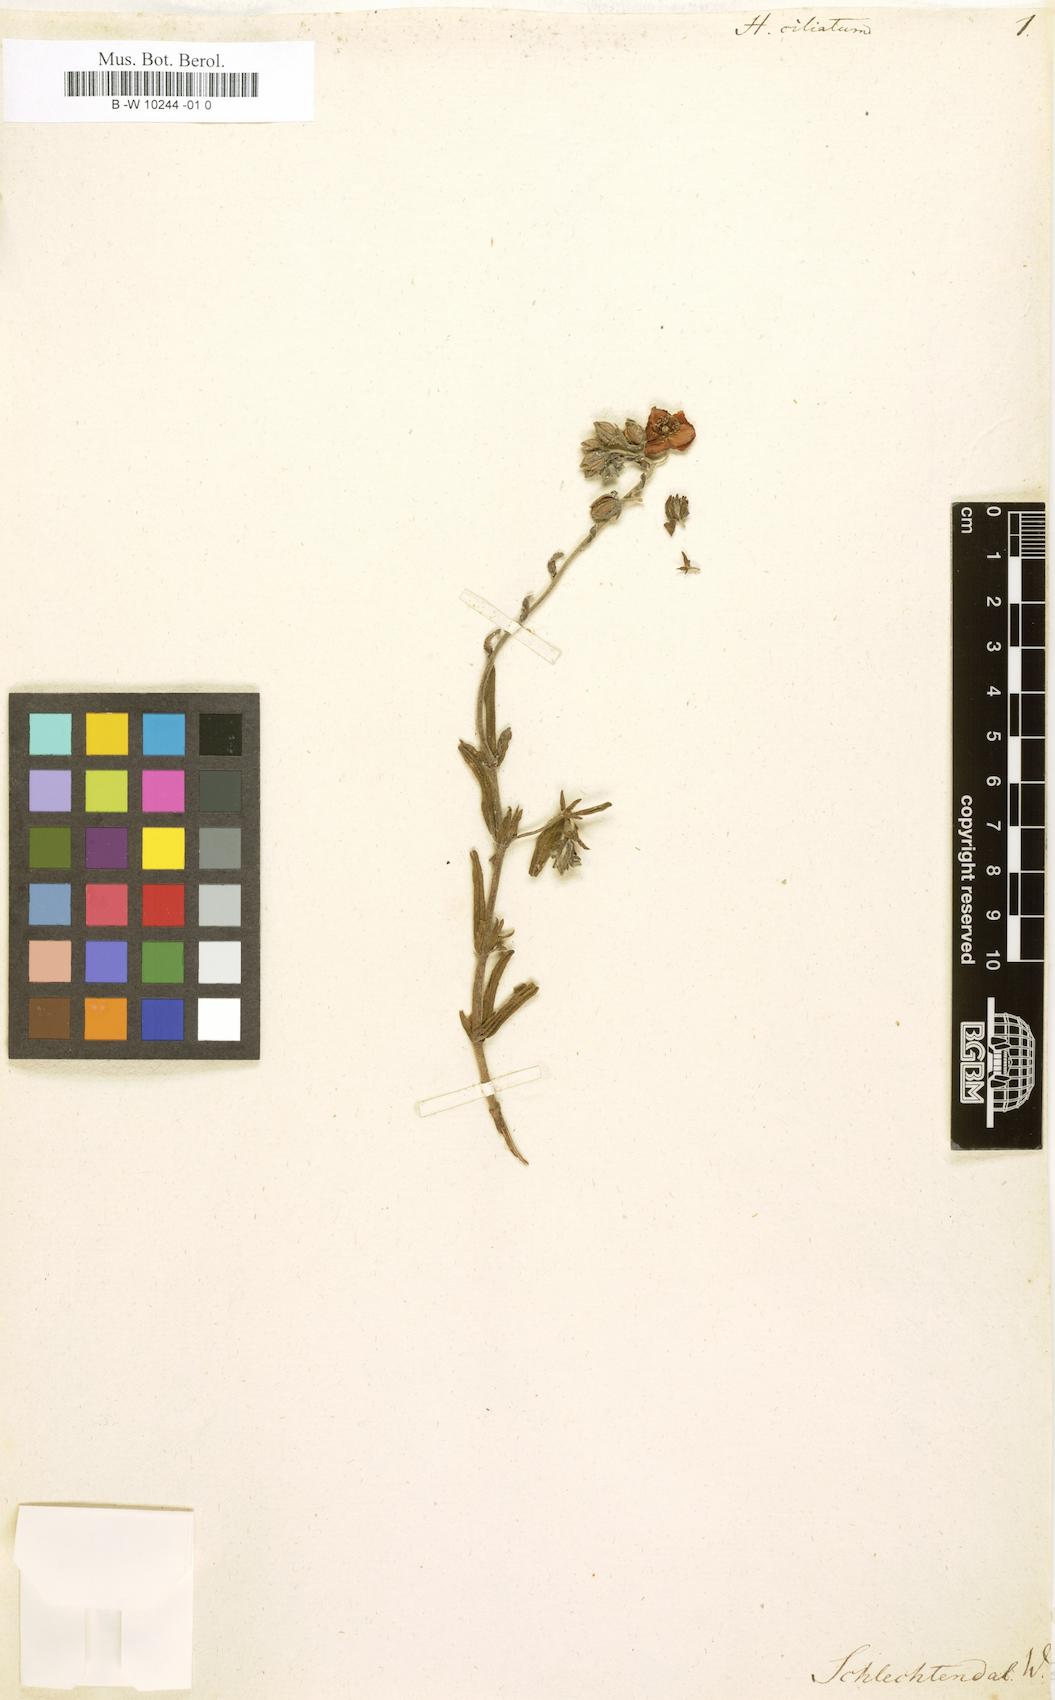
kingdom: Plantae
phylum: Tracheophyta
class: Magnoliopsida
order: Malvales
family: Cistaceae
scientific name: Cistaceae
